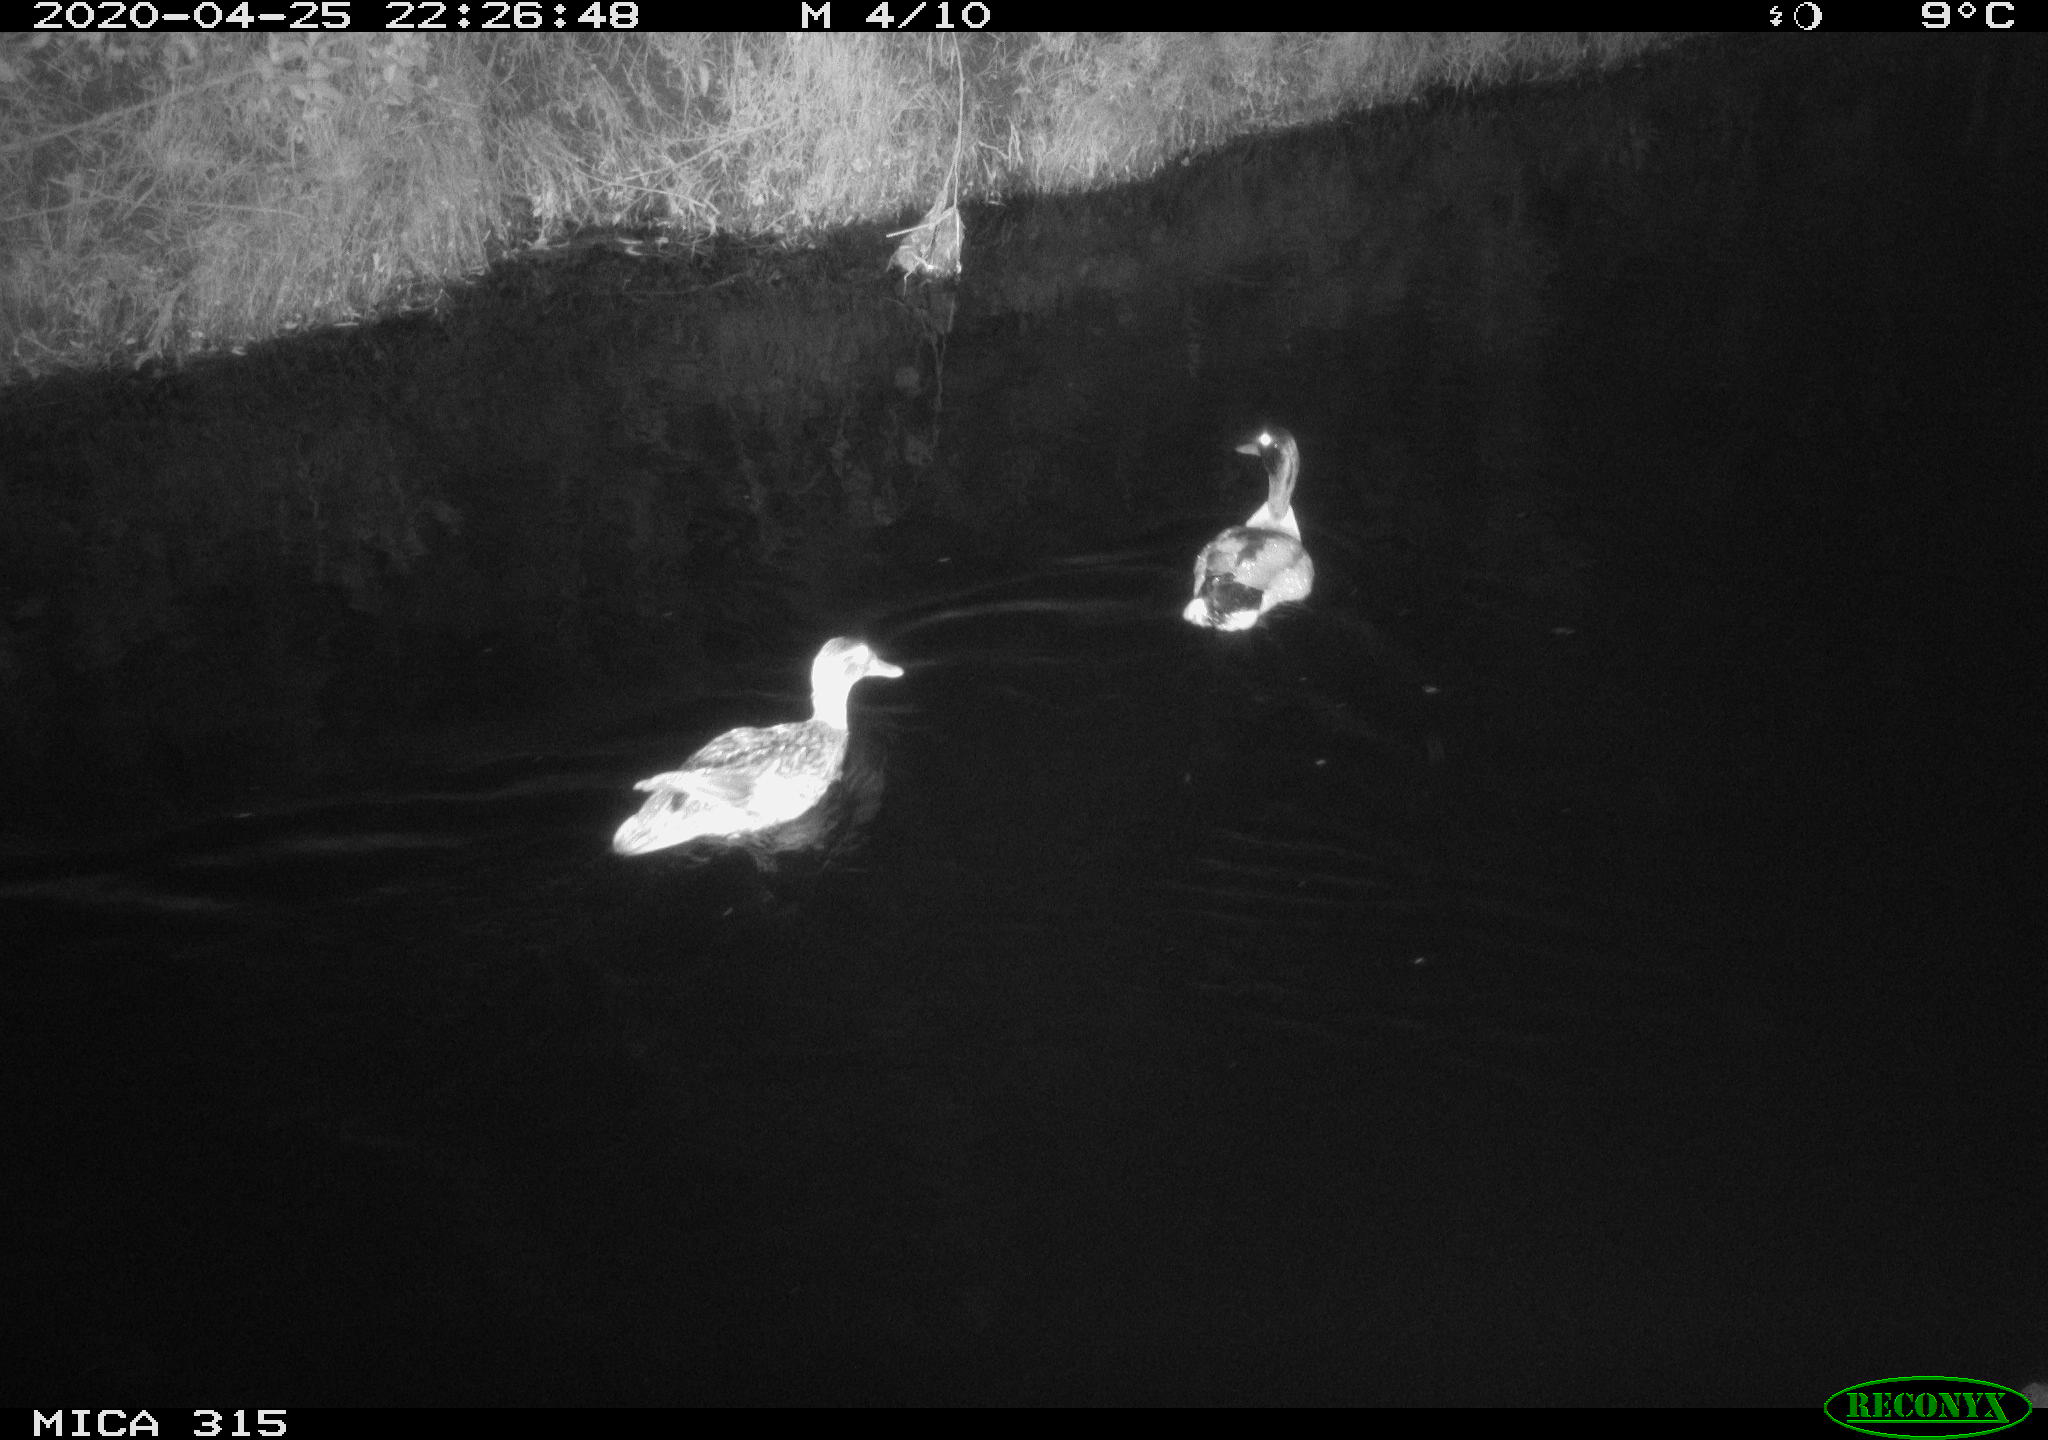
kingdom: Animalia
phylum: Chordata
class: Aves
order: Anseriformes
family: Anatidae
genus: Anas
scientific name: Anas platyrhynchos
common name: Mallard
